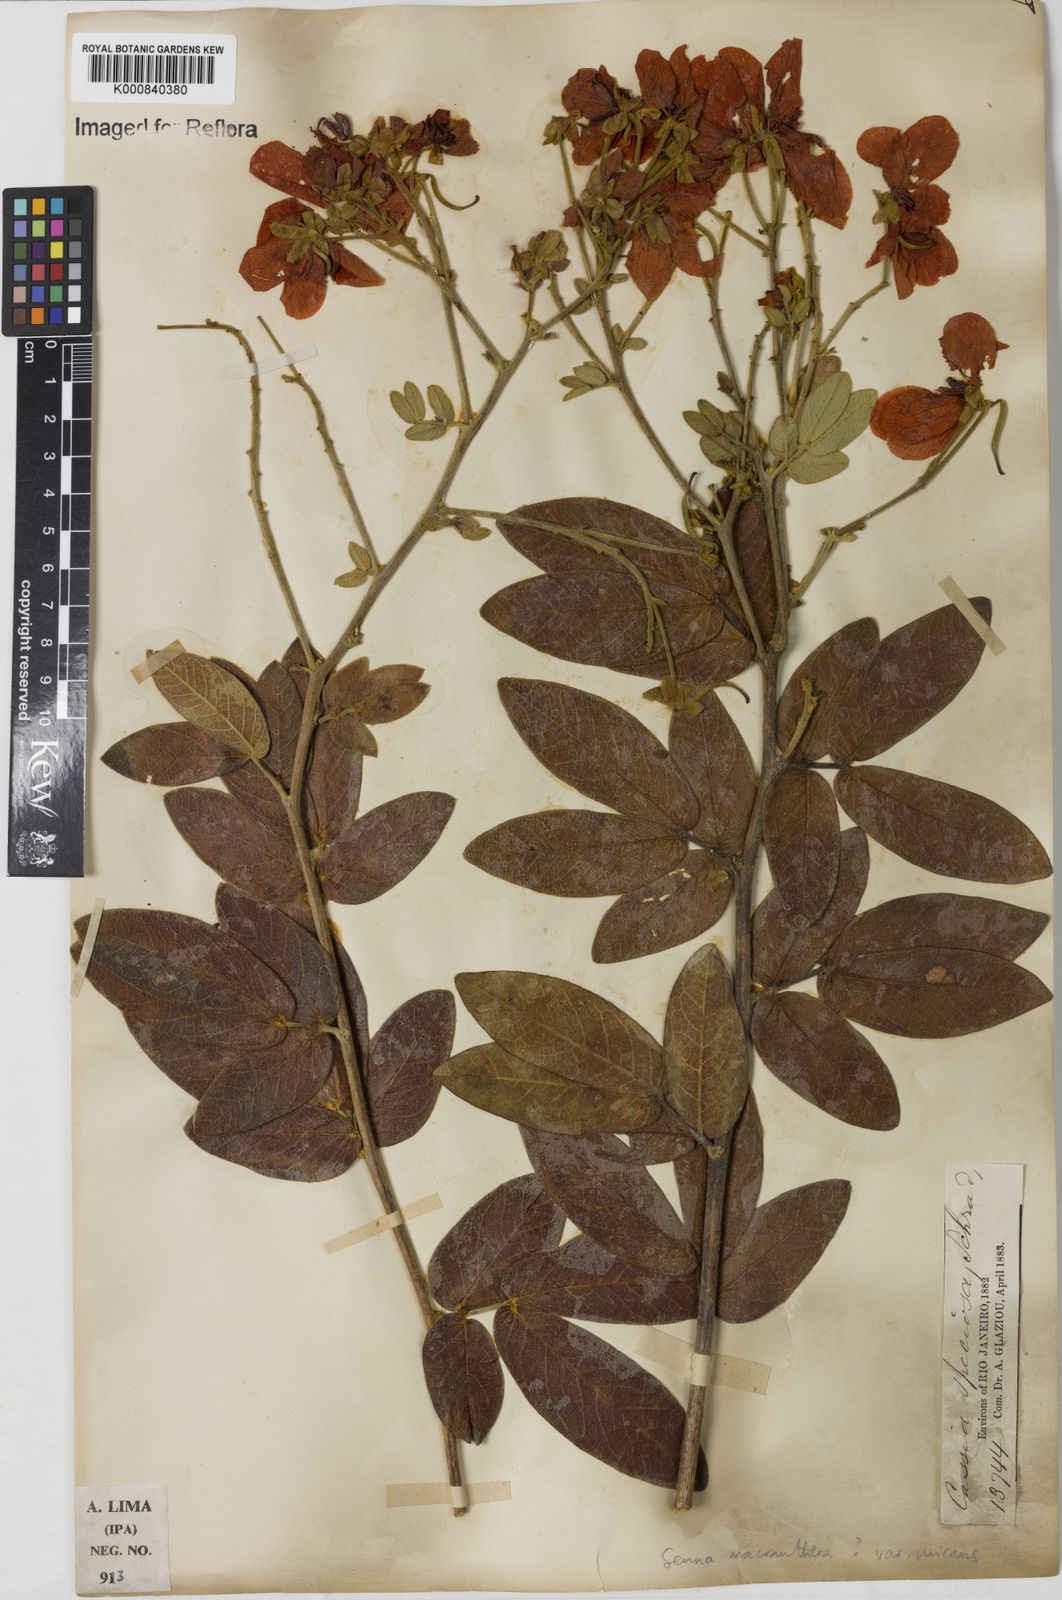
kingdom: Plantae
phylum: Tracheophyta
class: Magnoliopsida
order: Fabales
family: Fabaceae
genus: Senna
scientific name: Senna macranthera
